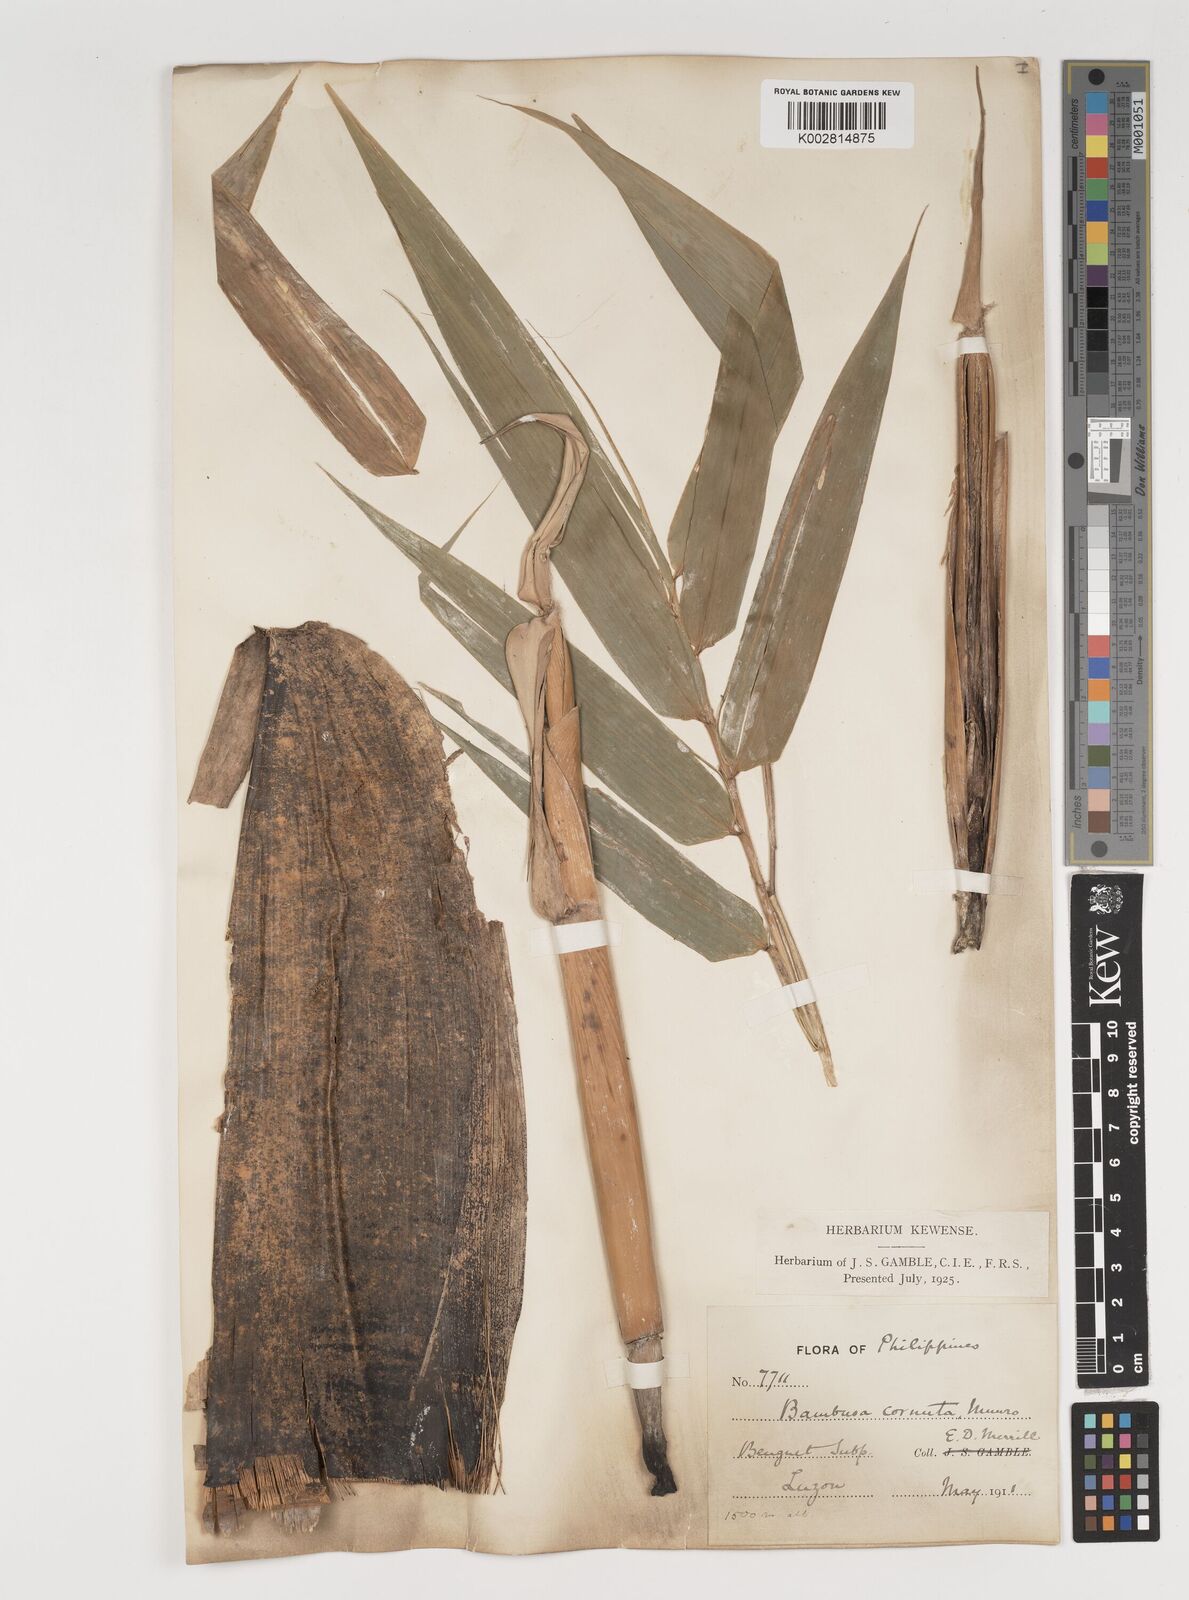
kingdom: Plantae
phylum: Tracheophyta
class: Liliopsida
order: Poales
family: Poaceae
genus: Fimbribambusa
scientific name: Fimbribambusa horsfieldii
